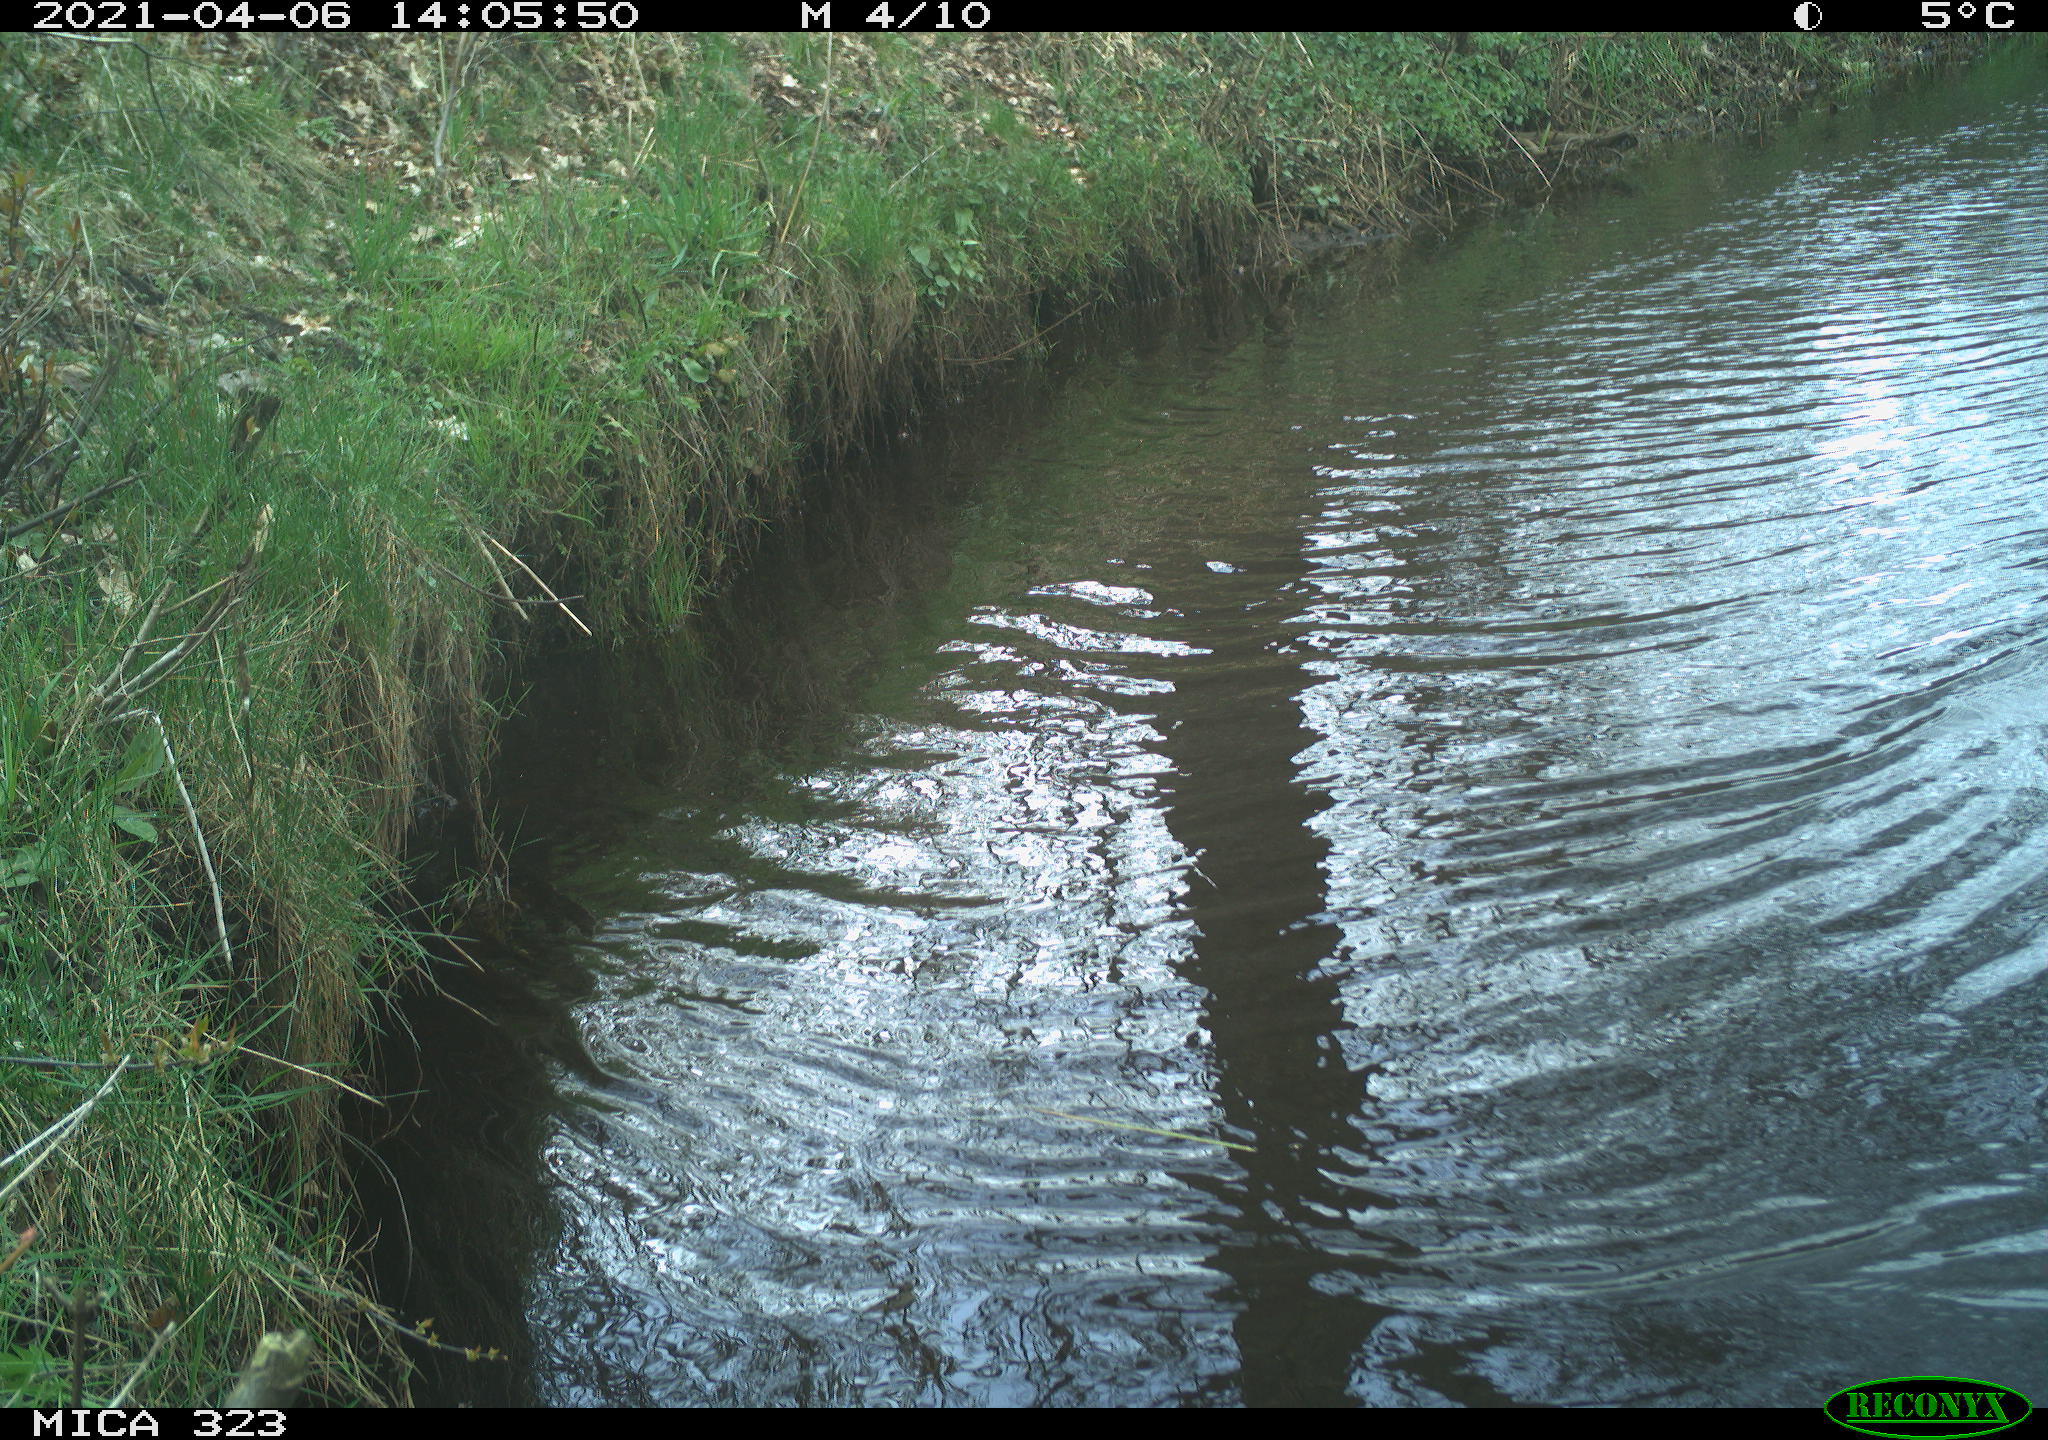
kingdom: Animalia
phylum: Chordata
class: Aves
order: Anseriformes
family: Anatidae
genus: Anas
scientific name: Anas platyrhynchos
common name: Mallard
